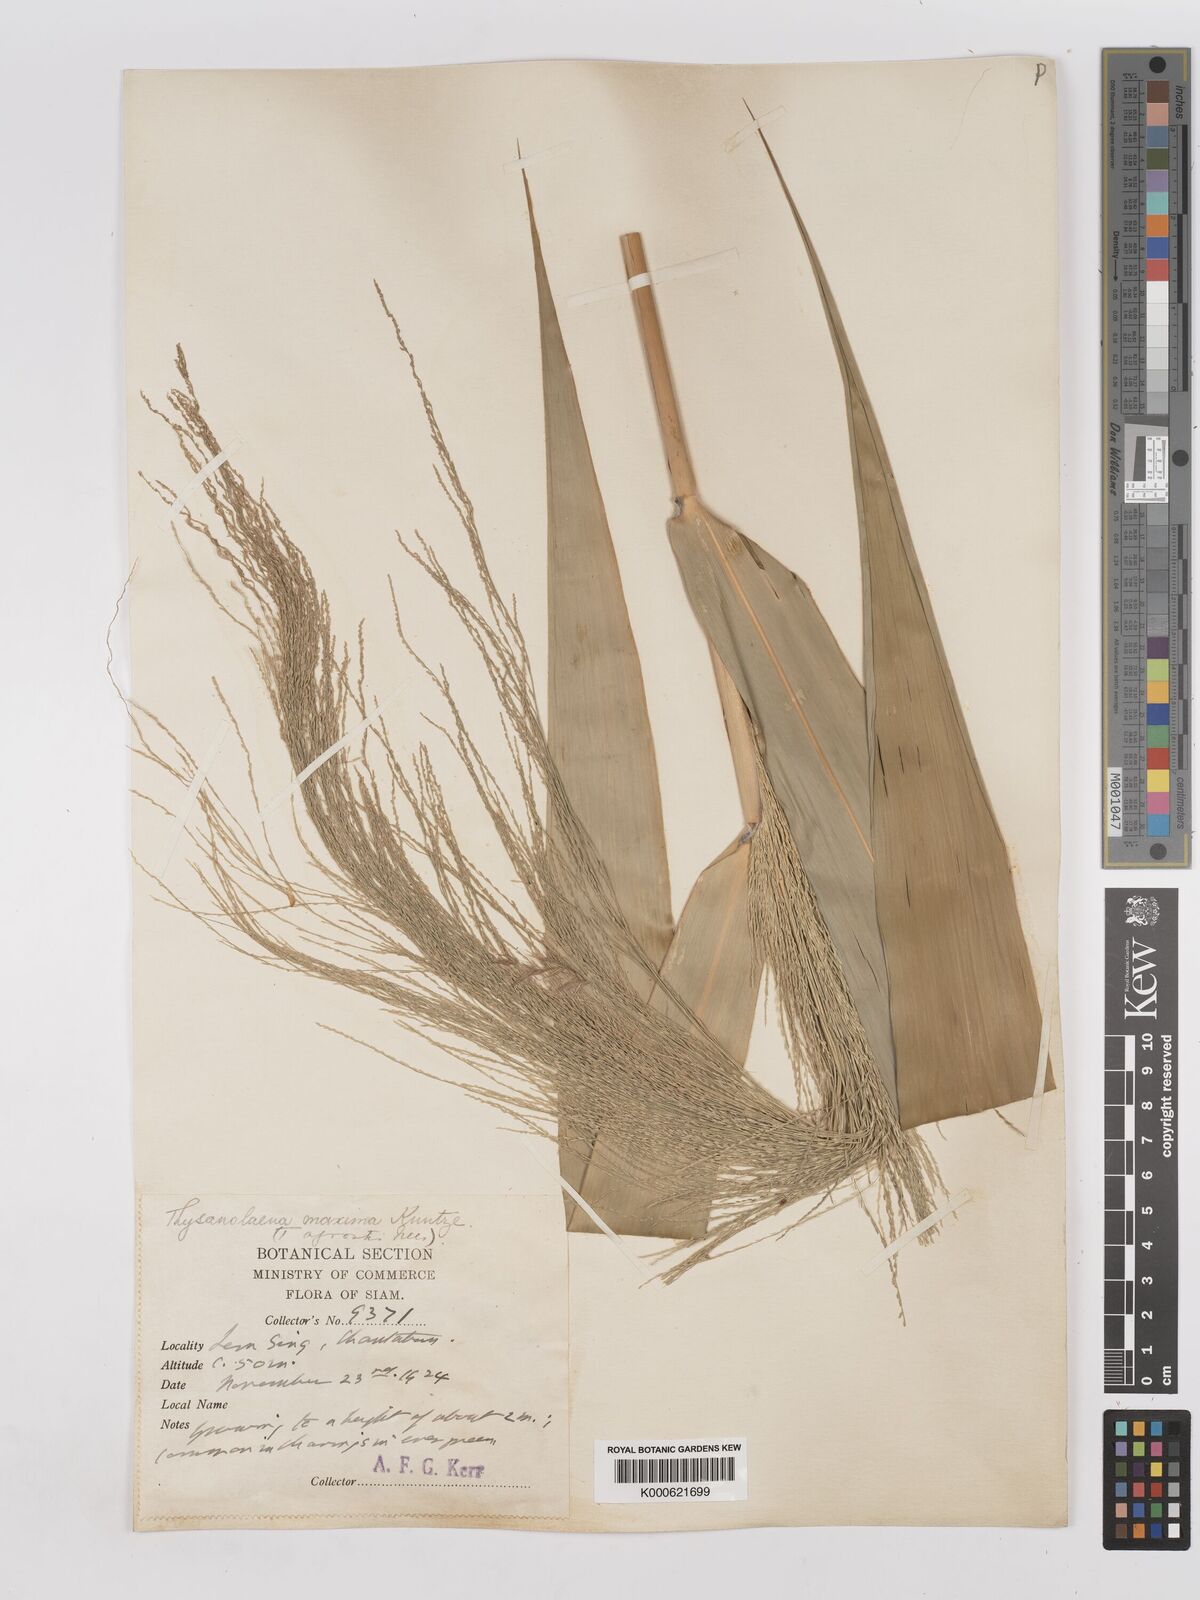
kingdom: Plantae
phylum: Tracheophyta
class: Liliopsida
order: Poales
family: Poaceae
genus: Thysanolaena
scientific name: Thysanolaena latifolia
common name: Tiger grass
